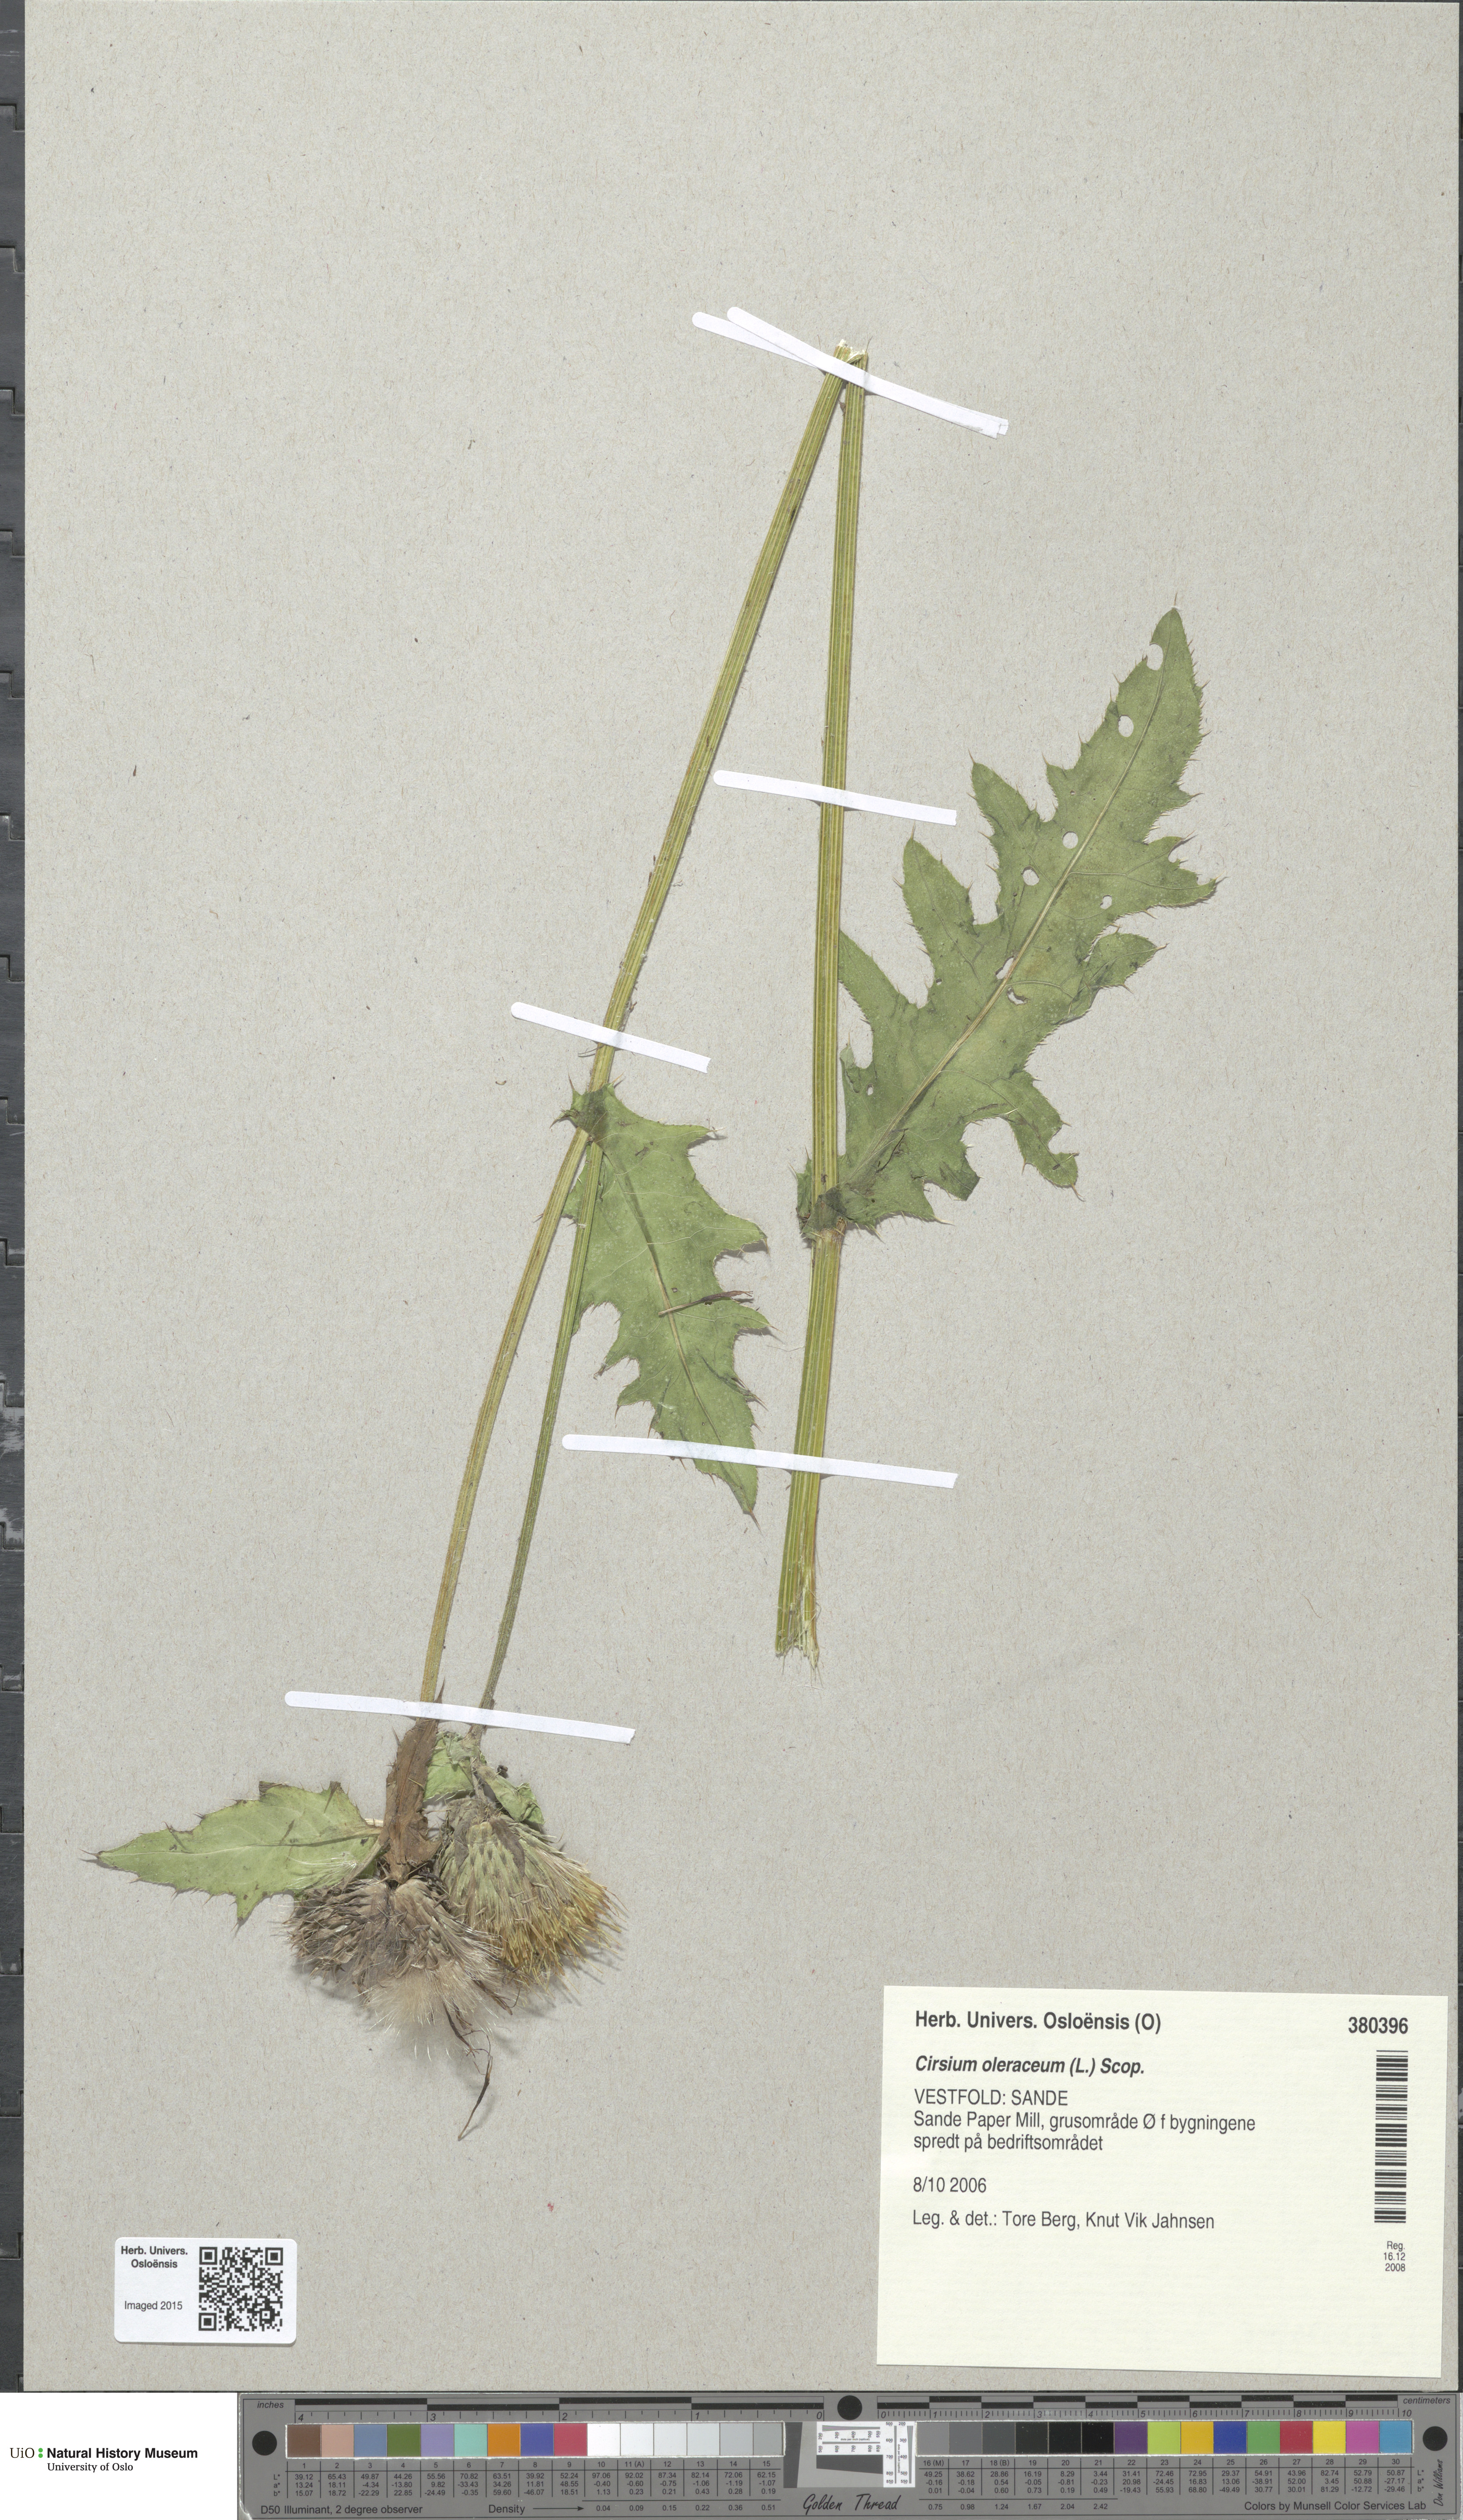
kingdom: Plantae
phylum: Tracheophyta
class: Magnoliopsida
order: Asterales
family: Asteraceae
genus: Cirsium
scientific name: Cirsium oleraceum
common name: Cabbage thistle
